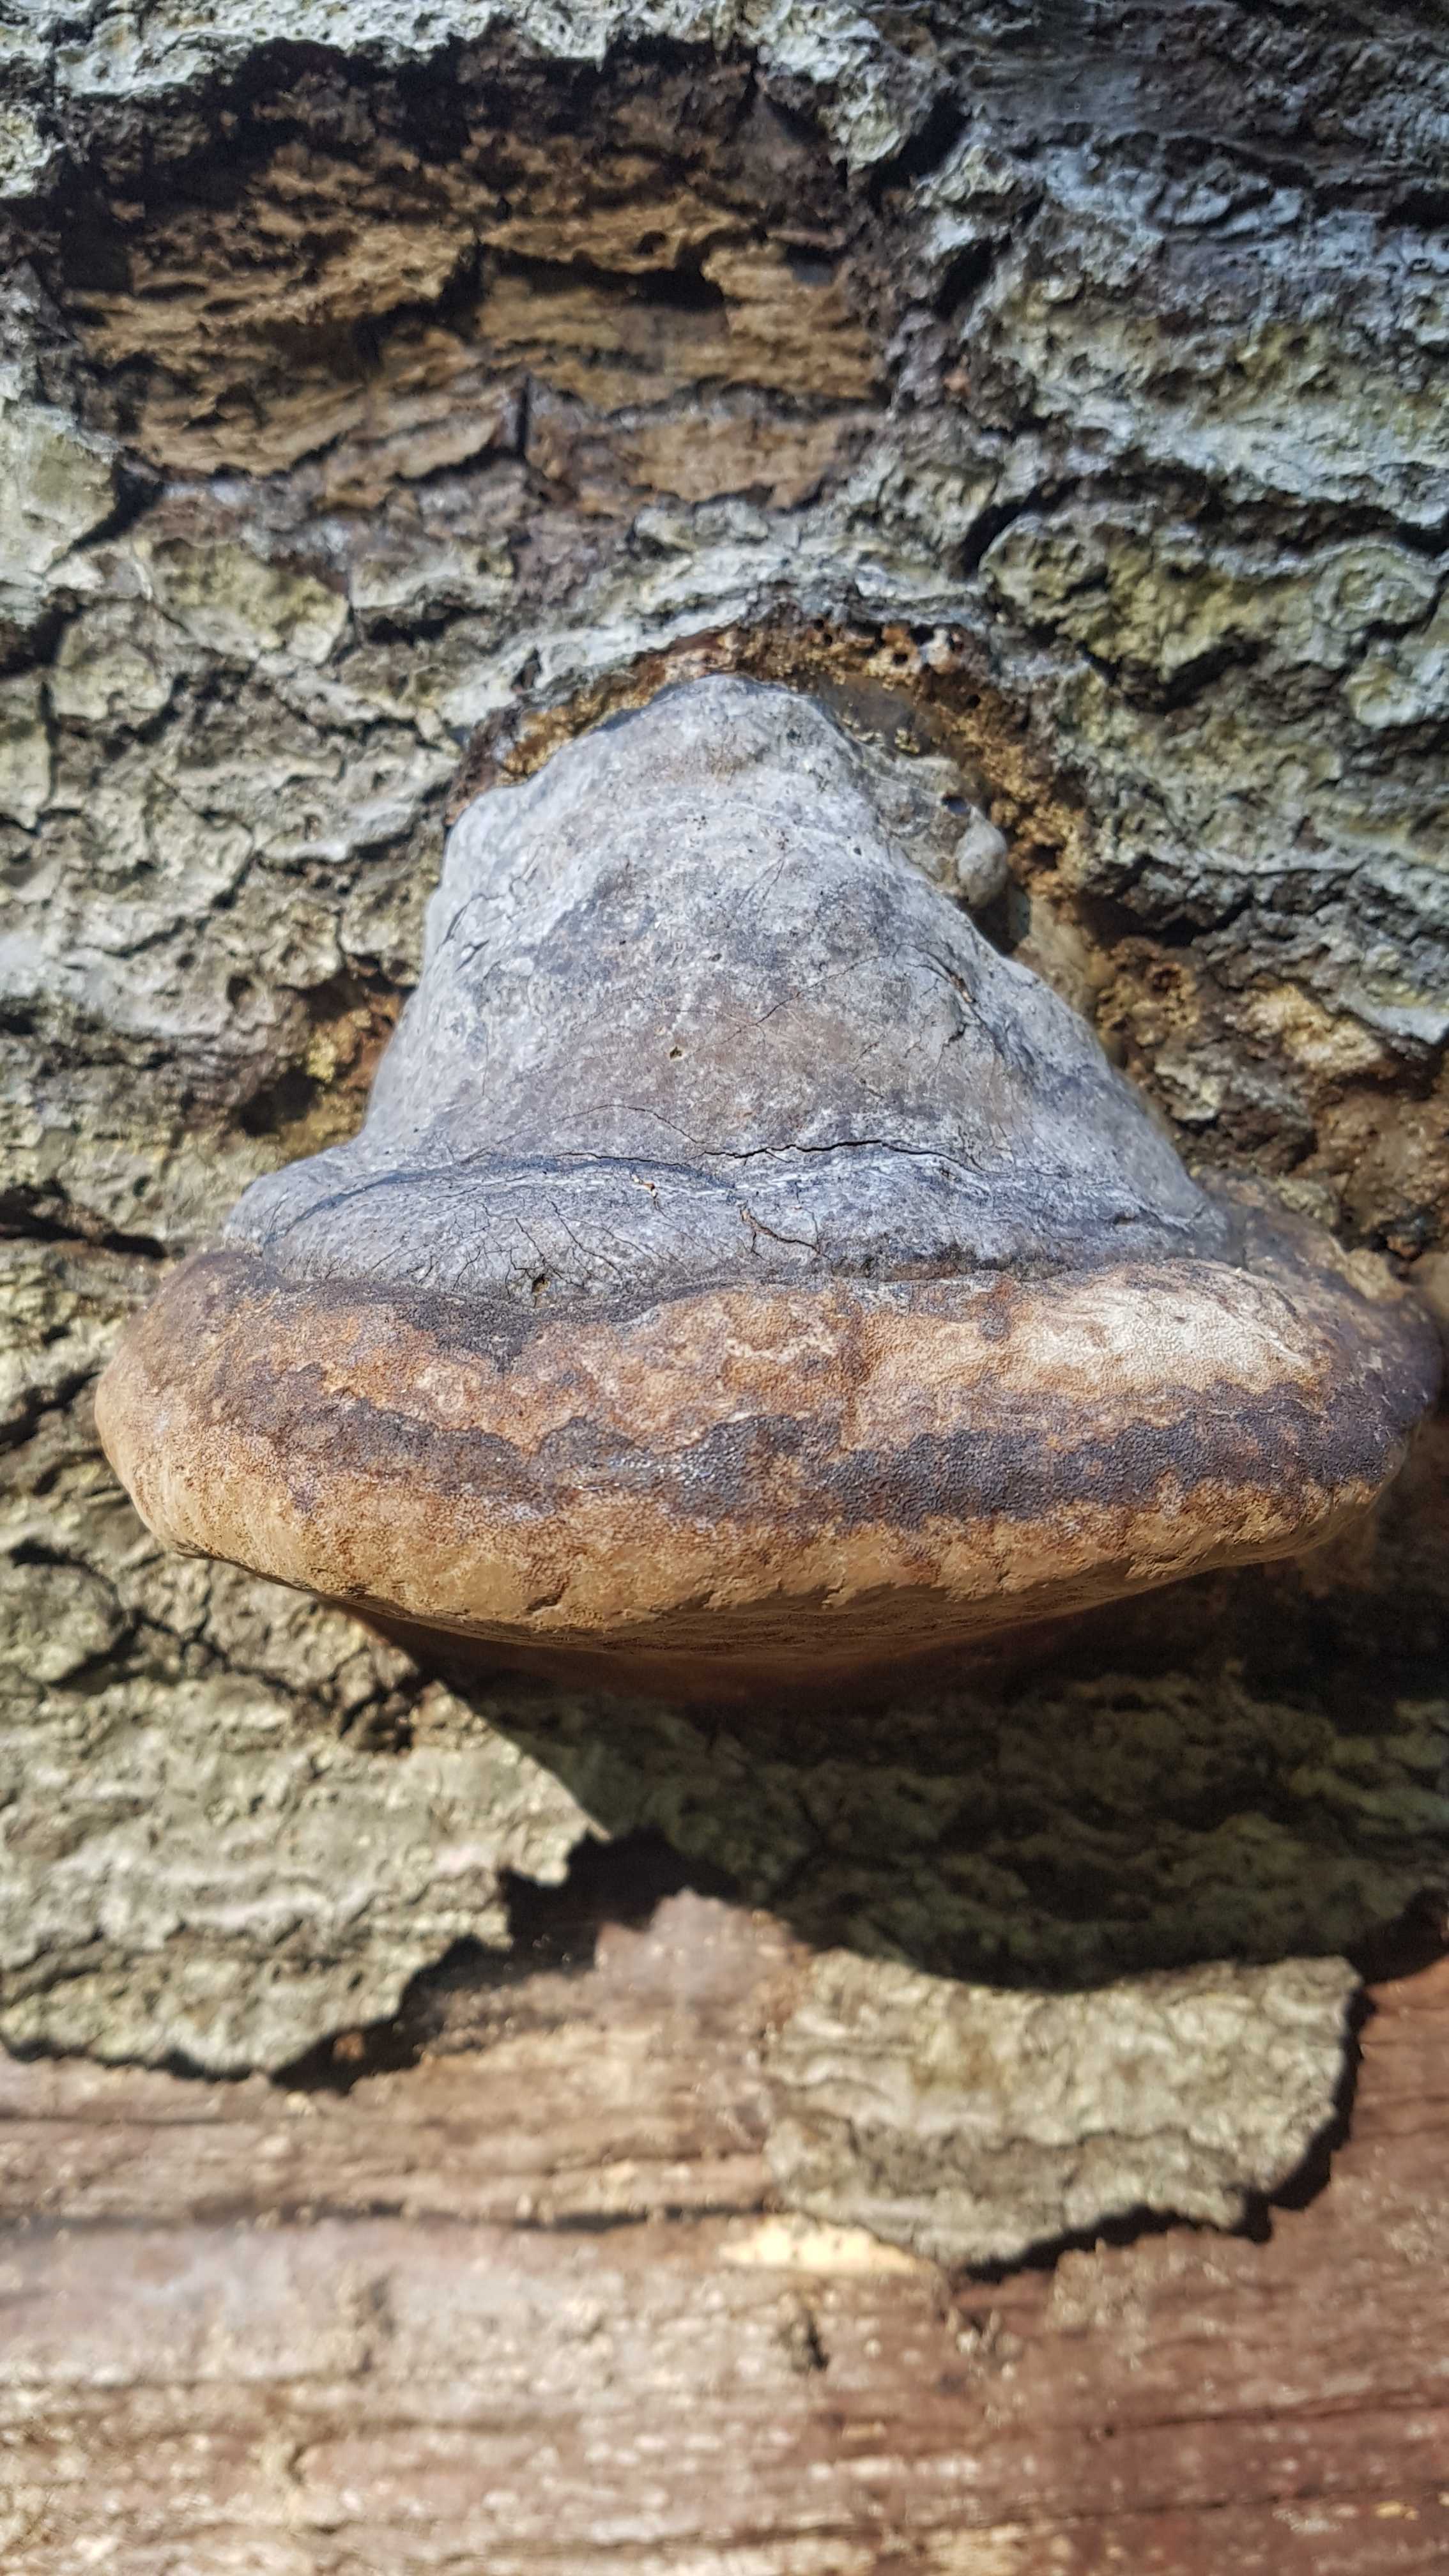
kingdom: Fungi
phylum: Basidiomycota
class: Agaricomycetes
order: Polyporales
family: Polyporaceae
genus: Fomes
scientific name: Fomes fomentarius
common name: tøndersvamp
